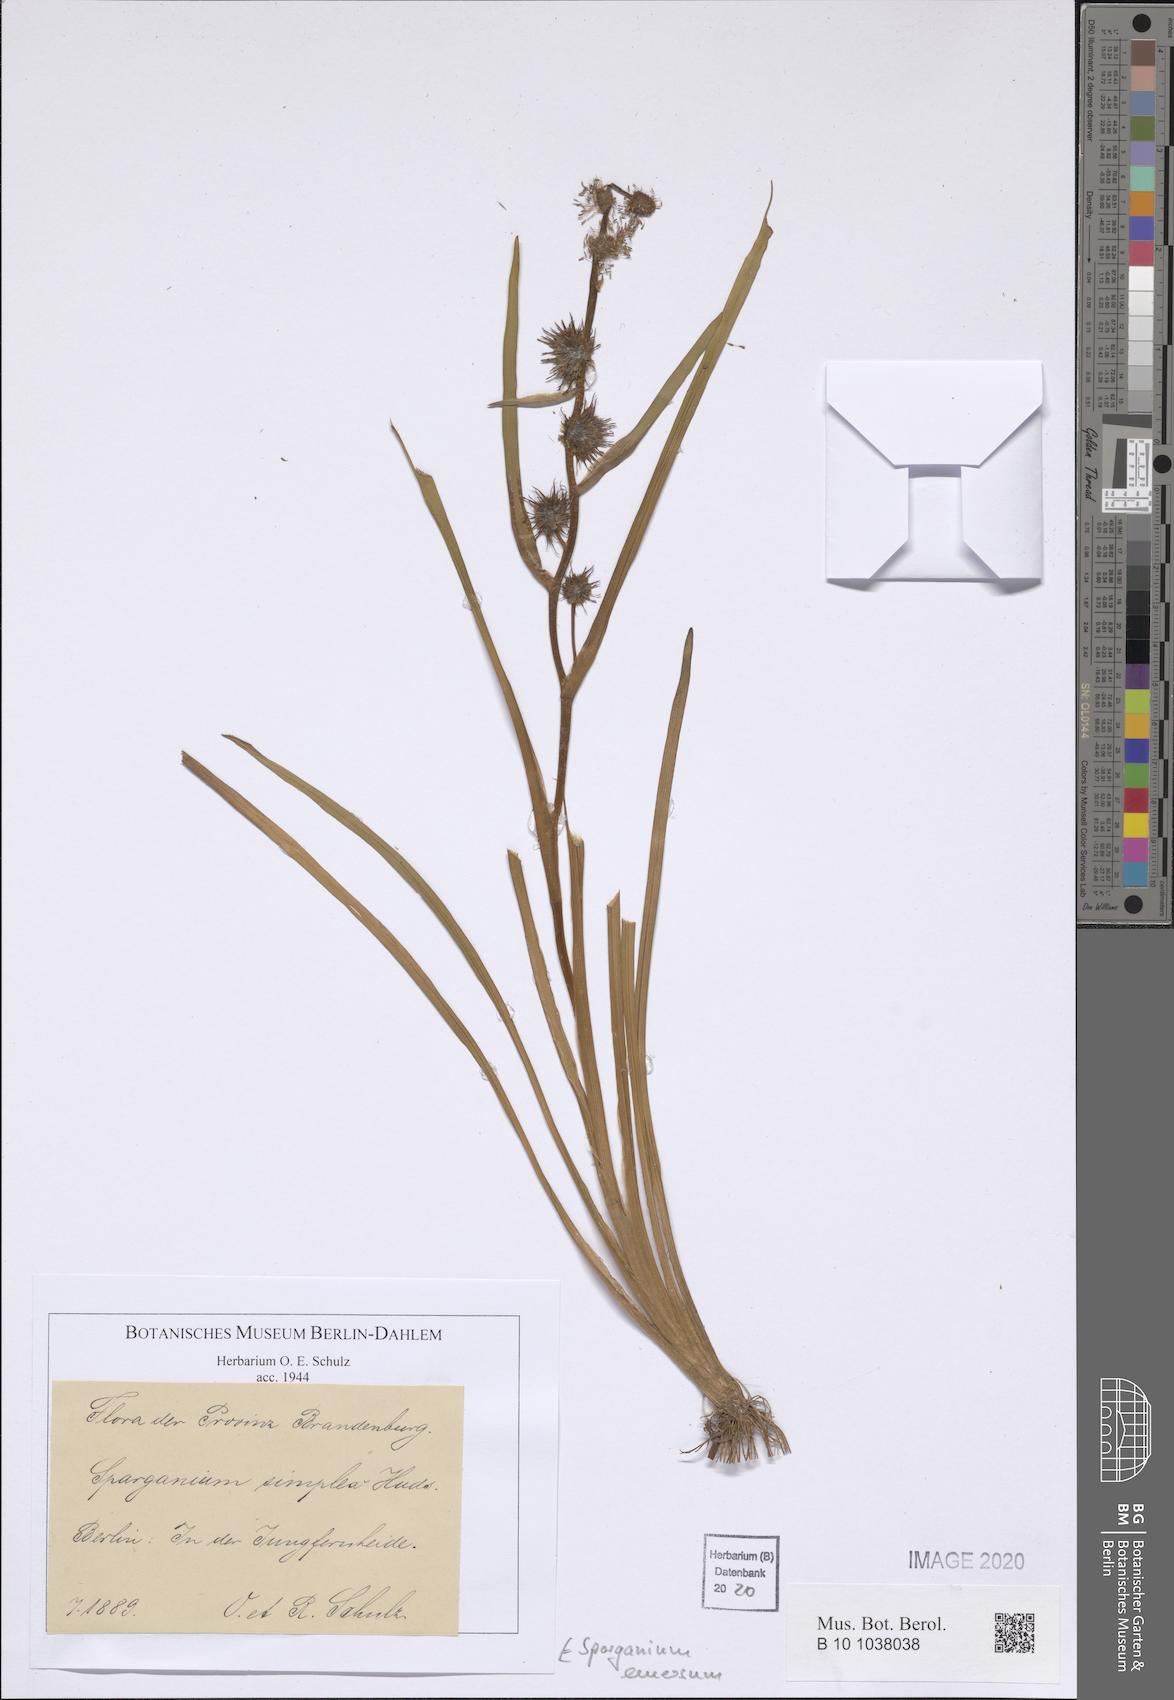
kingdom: Plantae
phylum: Tracheophyta
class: Liliopsida
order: Poales
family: Typhaceae
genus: Sparganium
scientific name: Sparganium emersum
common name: Unbranched bur-reed
